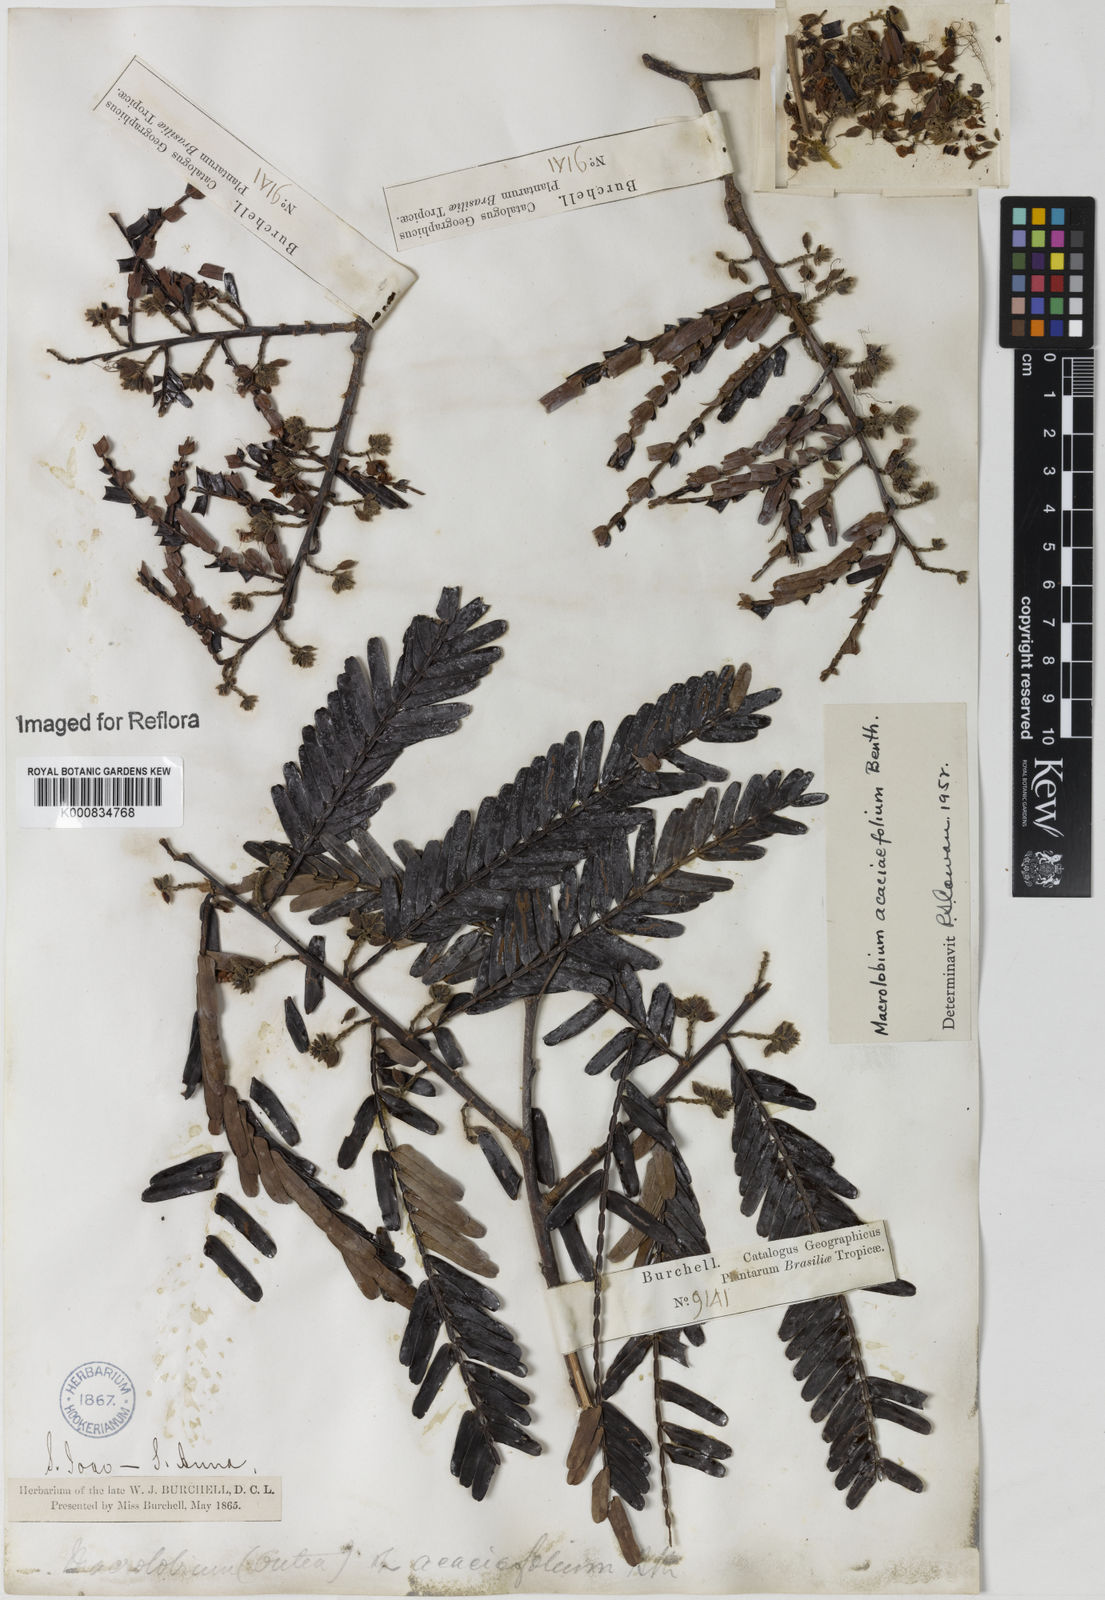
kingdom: Plantae
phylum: Tracheophyta
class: Magnoliopsida
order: Fabales
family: Fabaceae
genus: Macrolobium
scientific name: Macrolobium acaciifolium
